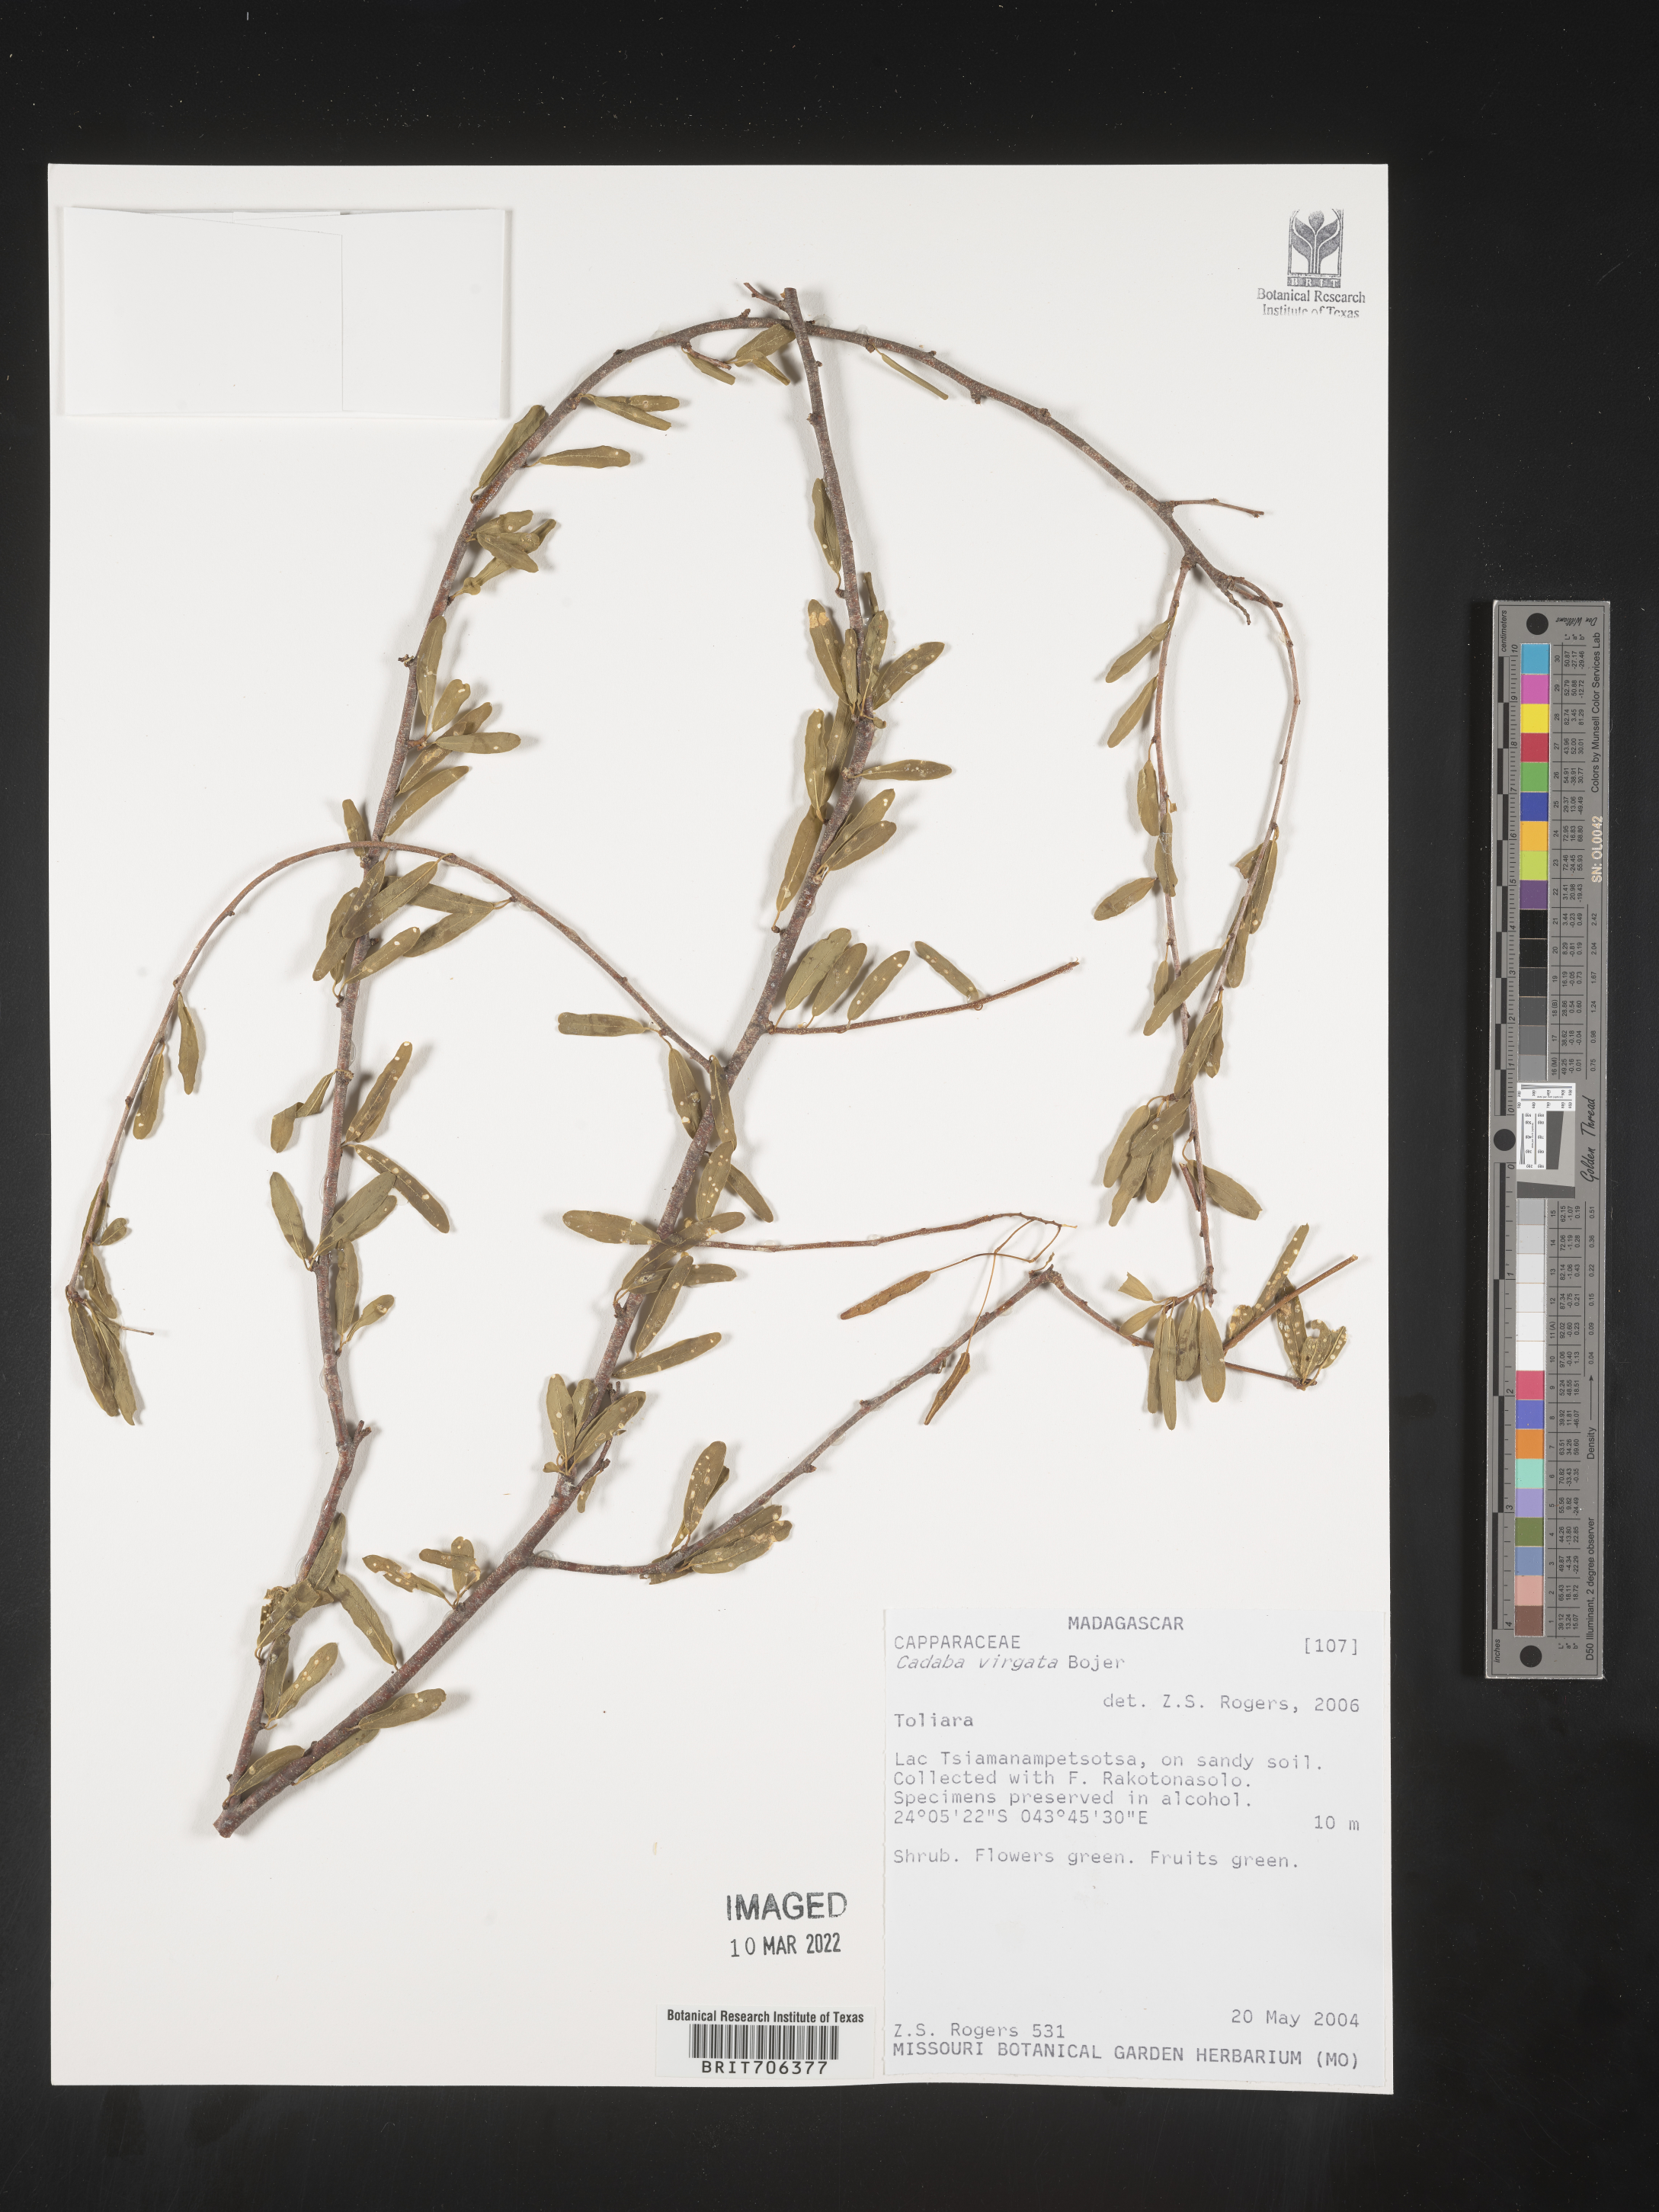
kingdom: Plantae
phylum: Tracheophyta
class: Magnoliopsida
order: Brassicales
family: Capparaceae
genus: Cadaba
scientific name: Cadaba
